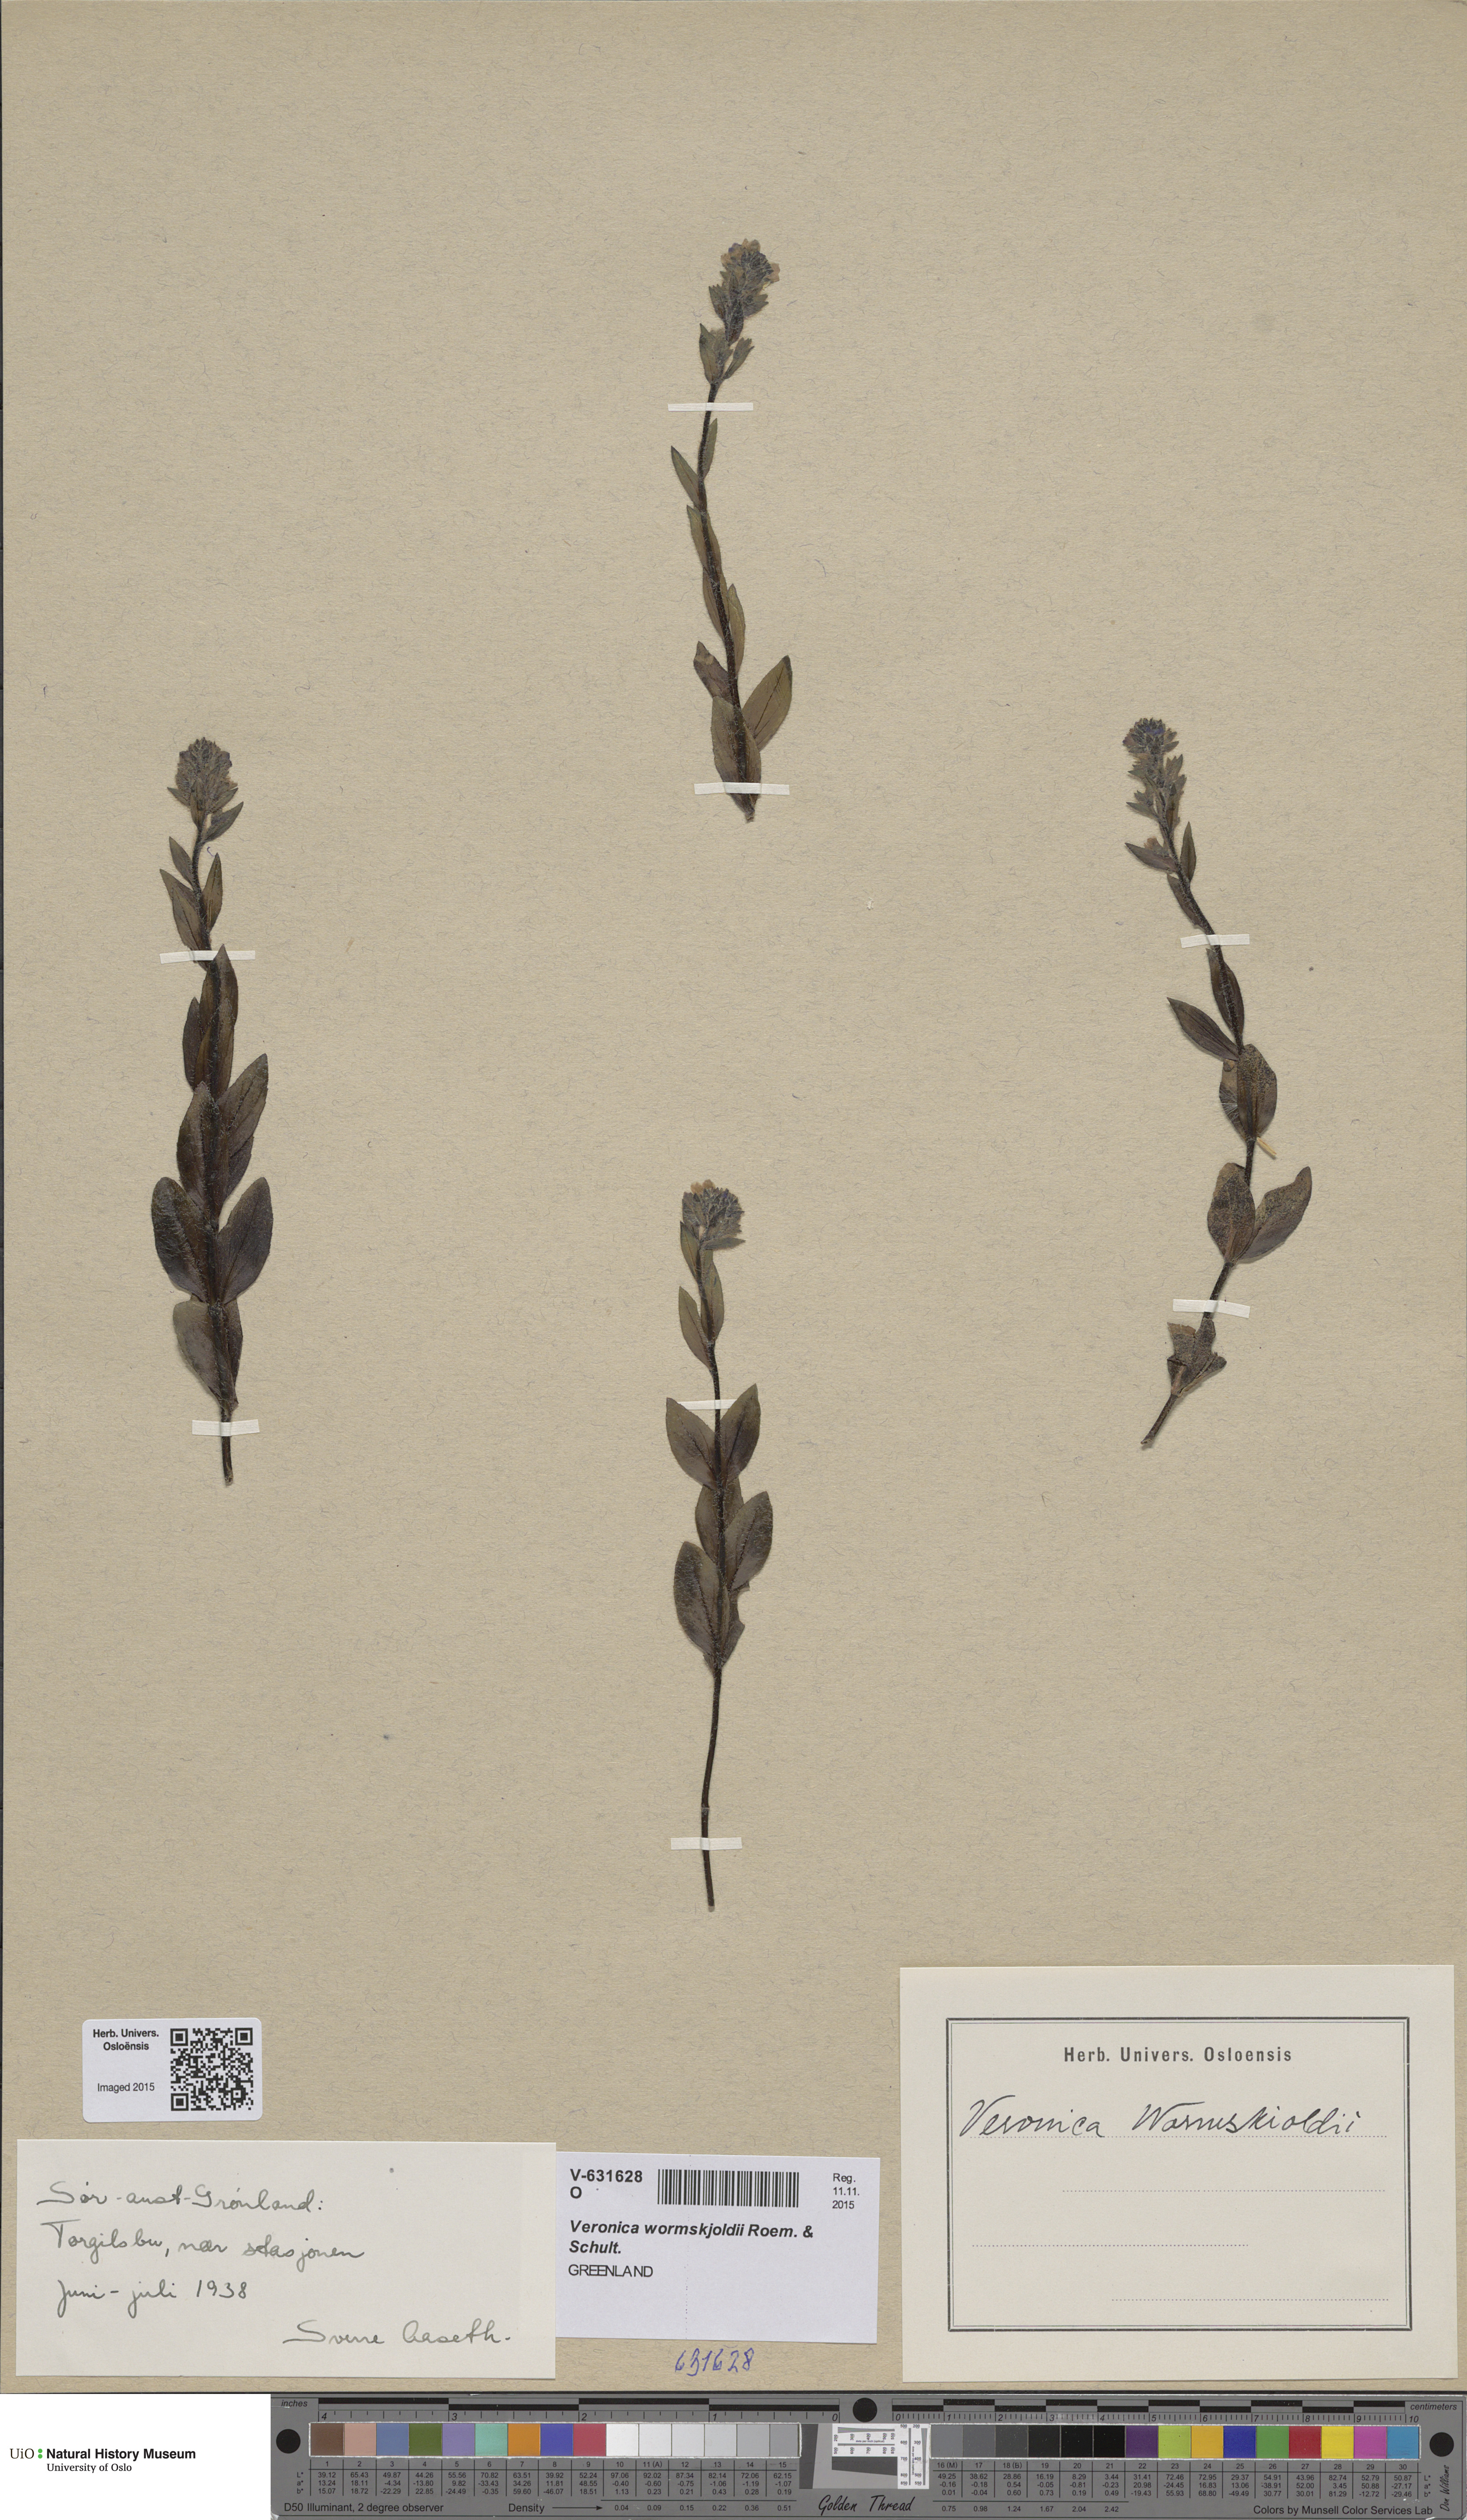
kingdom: Plantae
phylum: Tracheophyta
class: Magnoliopsida
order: Lamiales
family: Plantaginaceae
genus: Veronica
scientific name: Veronica wormskjoldii
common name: American alpine speedwell
